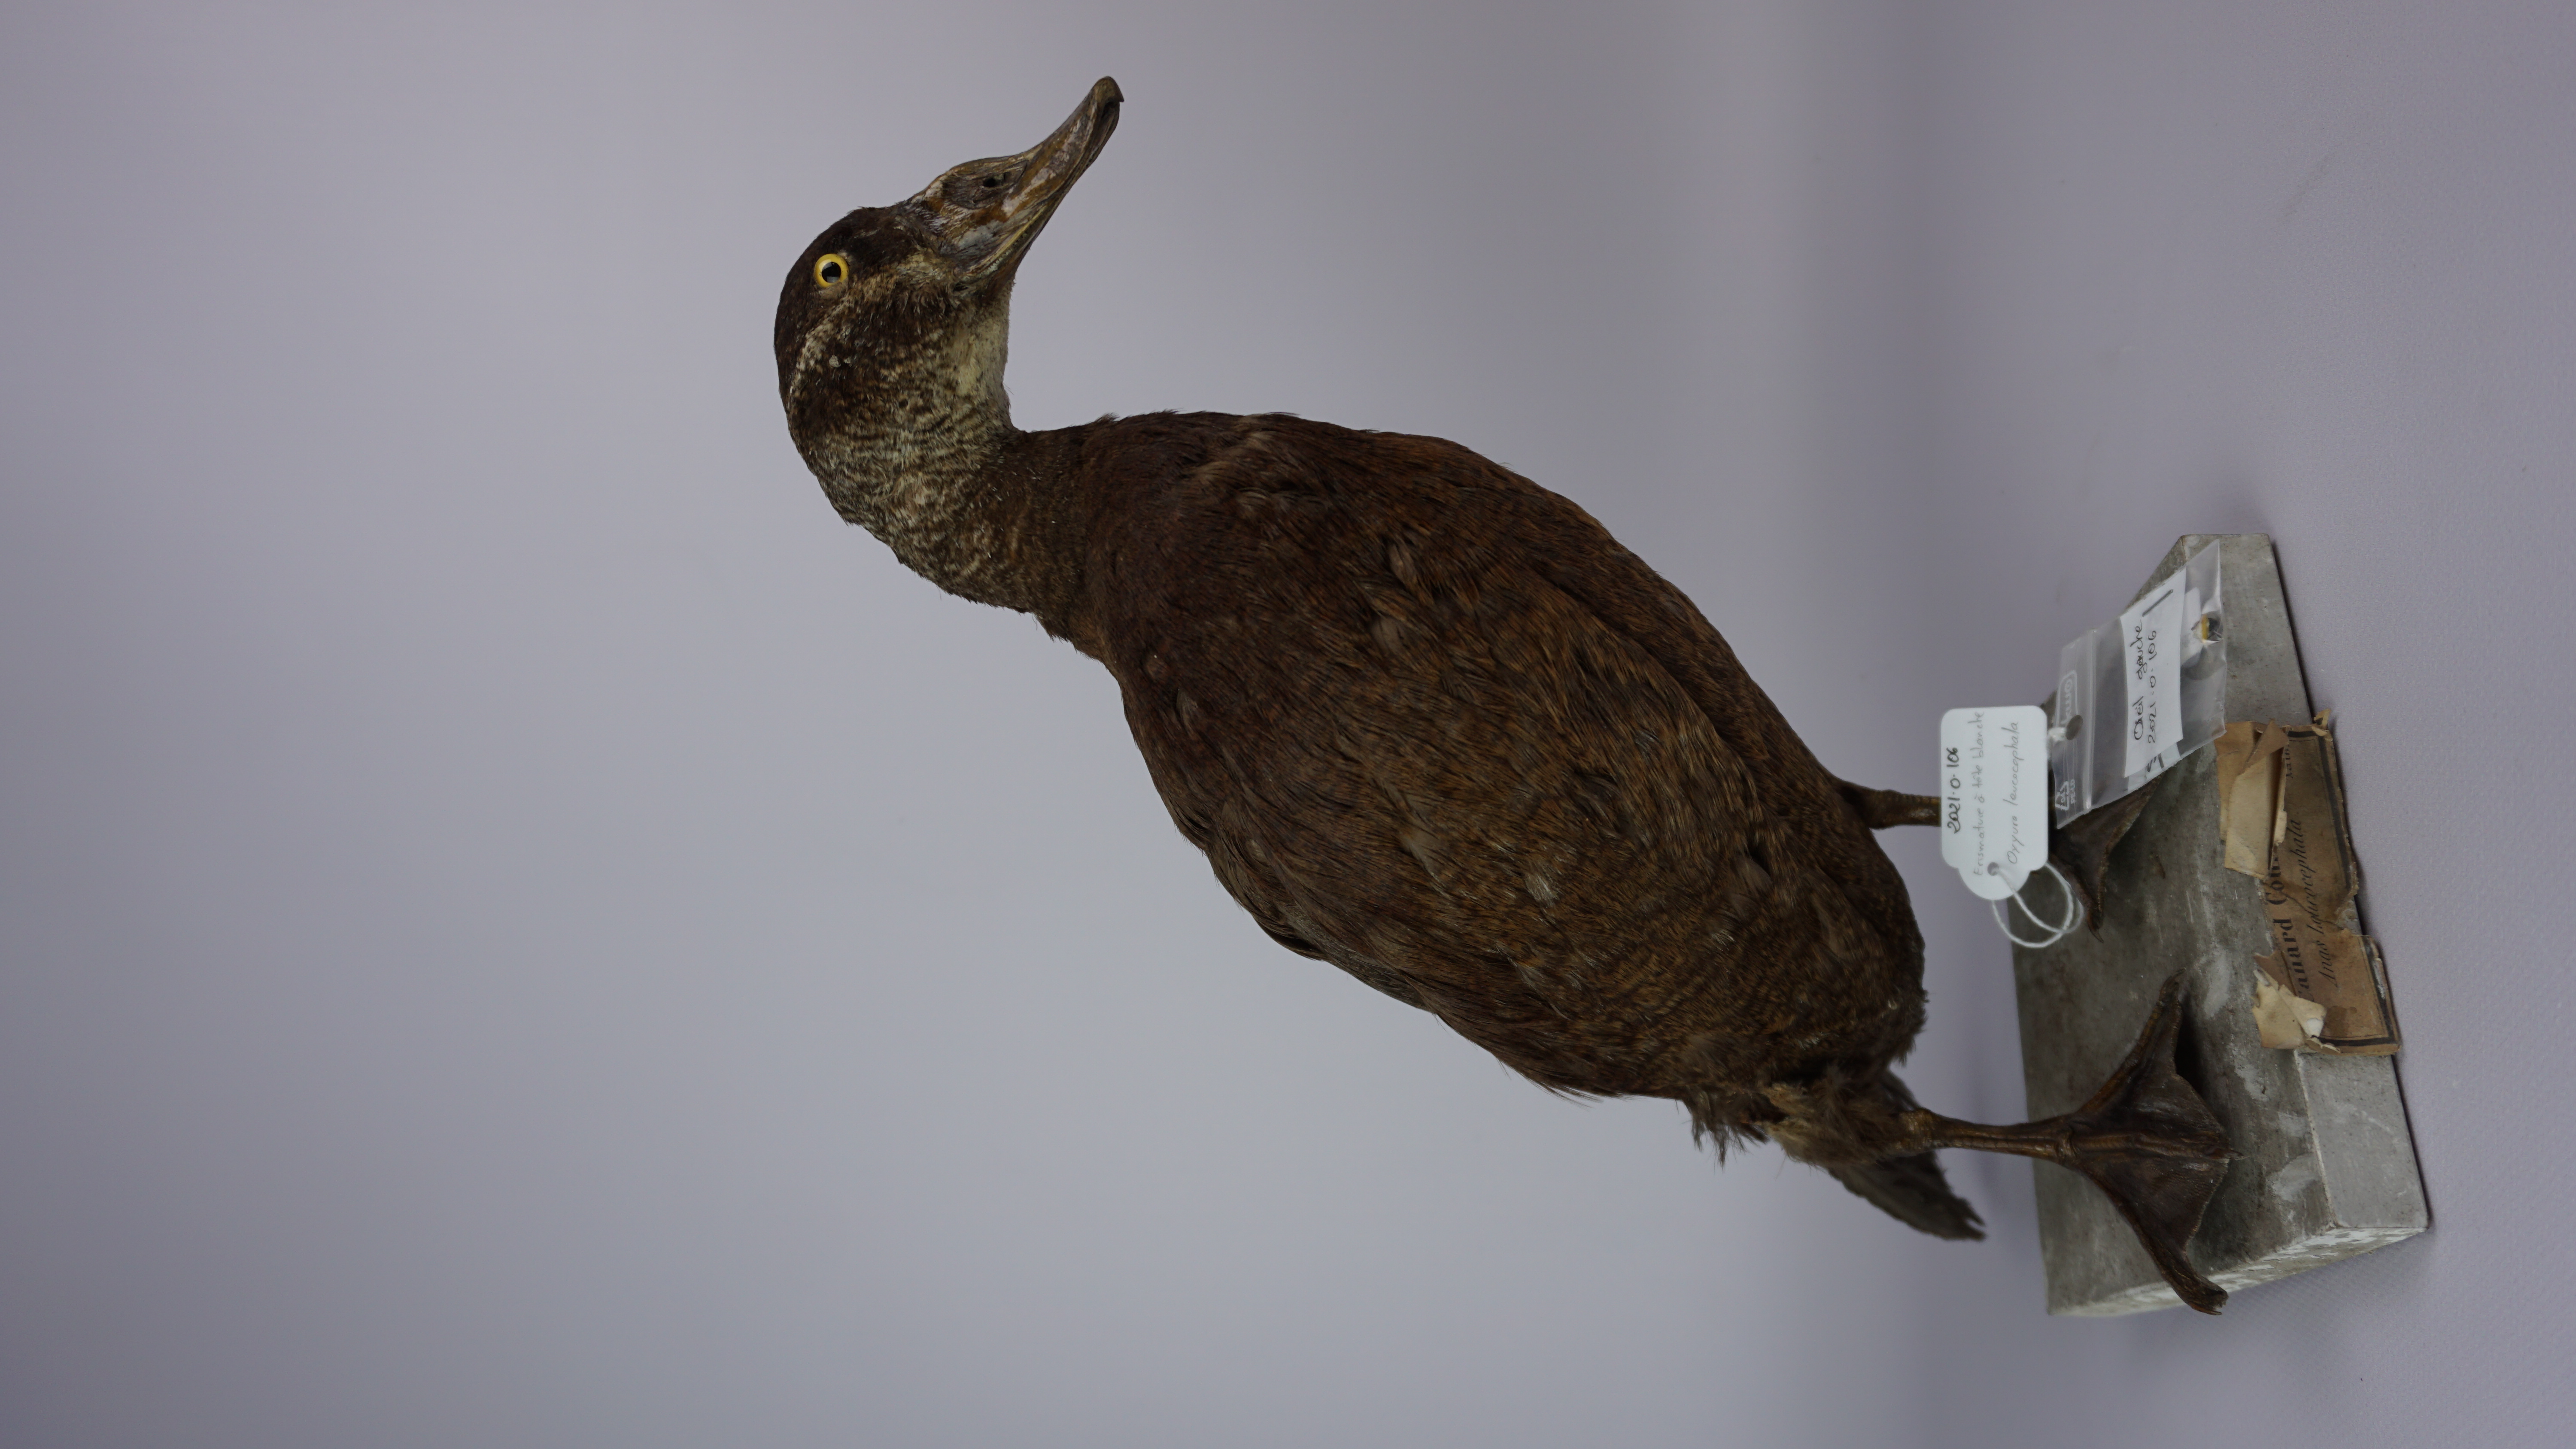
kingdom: Animalia
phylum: Chordata
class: Aves
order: Anseriformes
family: Anatidae
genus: Oxyura
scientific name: Oxyura leucocephala
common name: White-headed duck
